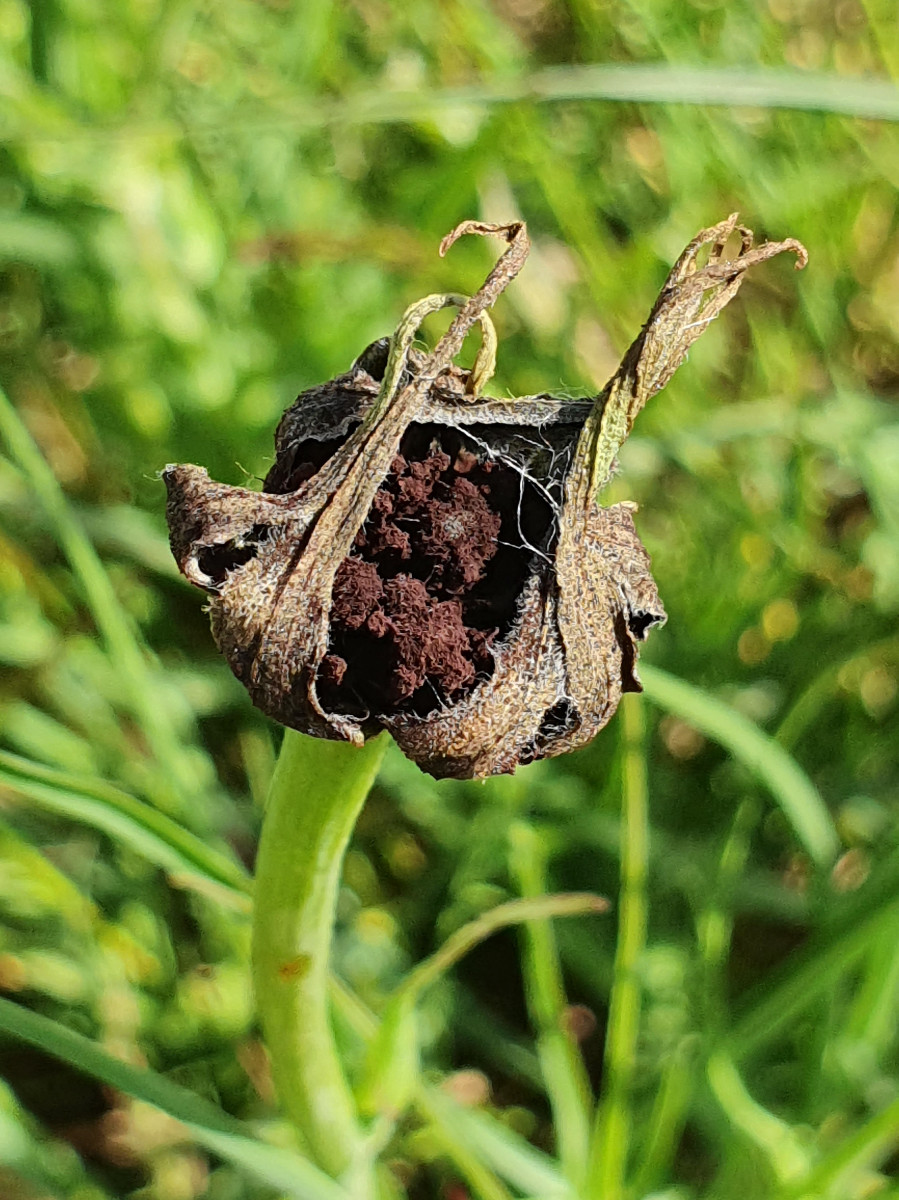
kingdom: Fungi
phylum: Basidiomycota
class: Microbotryomycetes
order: Microbotryales
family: Microbotryaceae
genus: Microbotryum
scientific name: Microbotryum tragopogonis-pratensis
